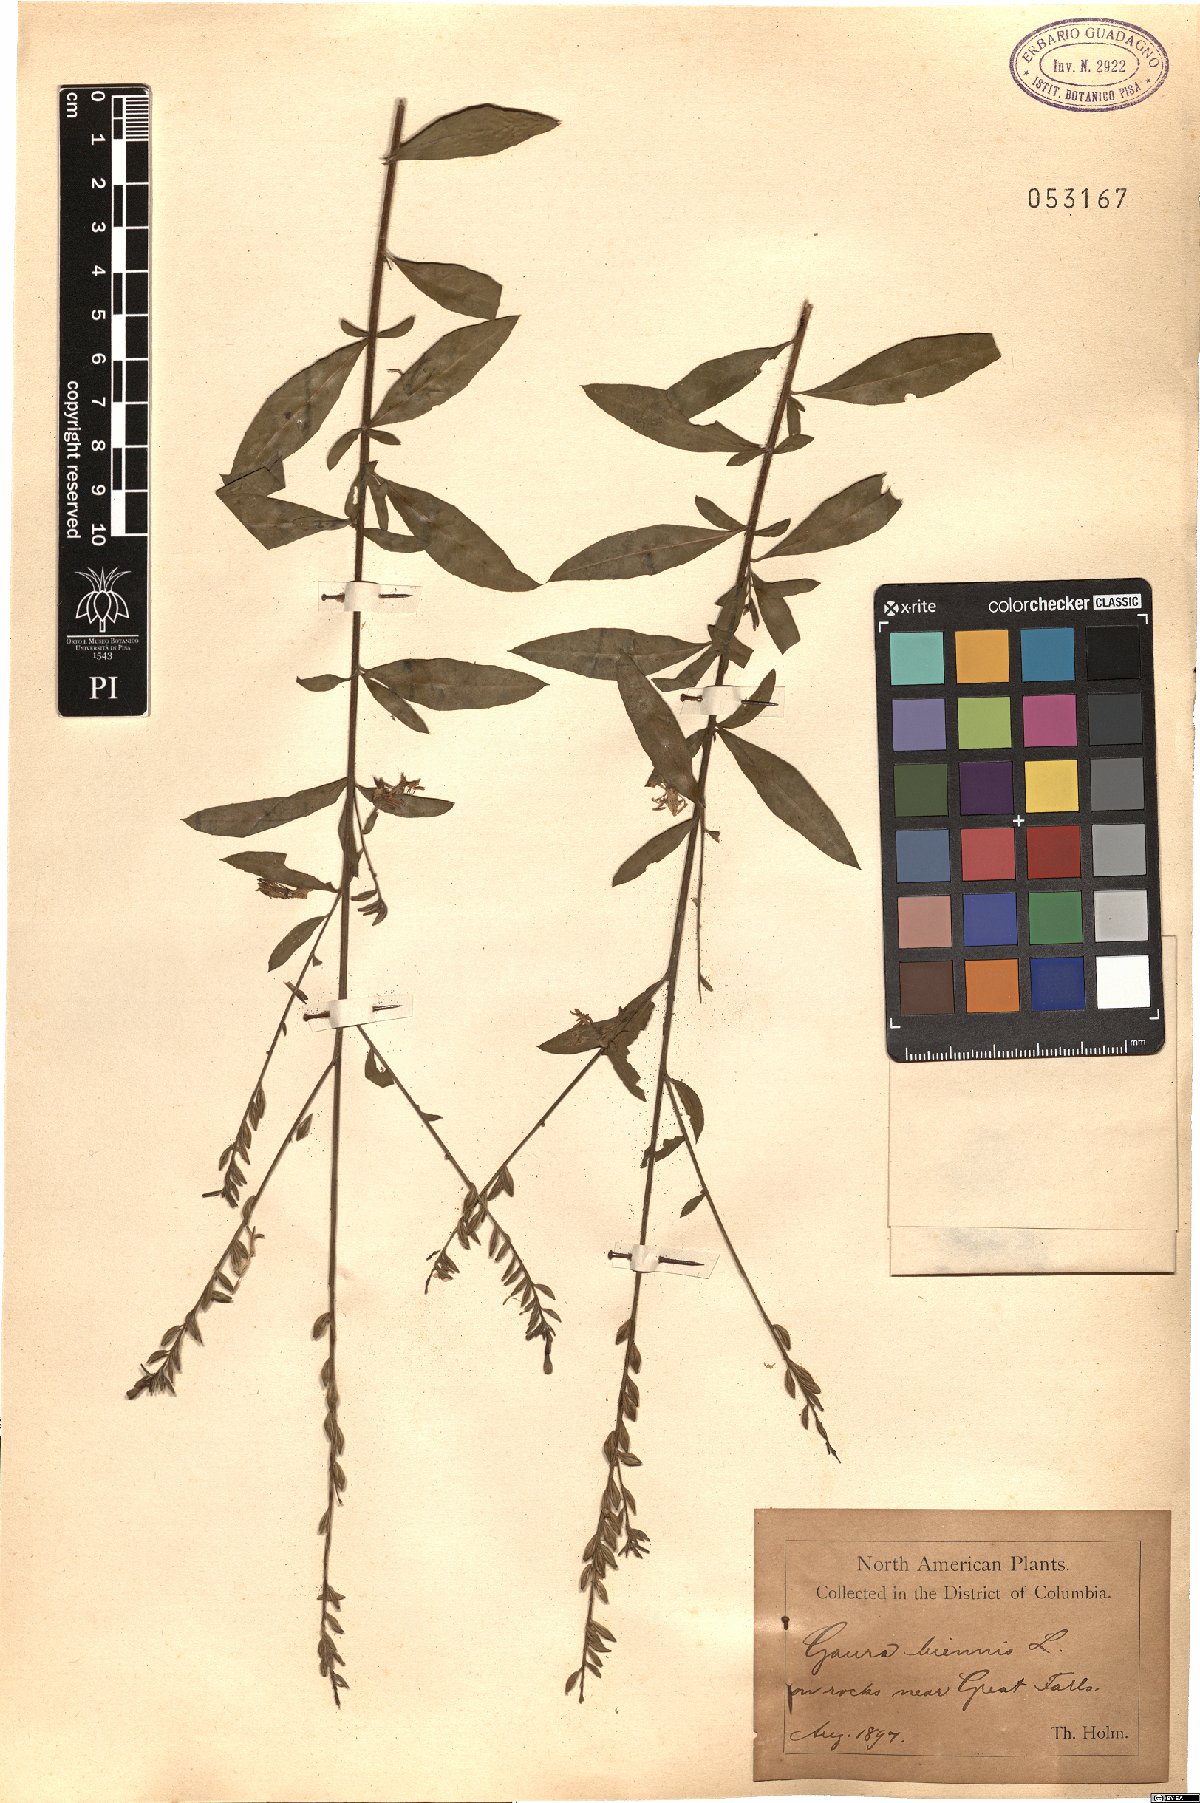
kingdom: Plantae
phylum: Tracheophyta
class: Magnoliopsida
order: Myrtales
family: Onagraceae
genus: Oenothera
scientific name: Oenothera gaura
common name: Biennial beeblossom
